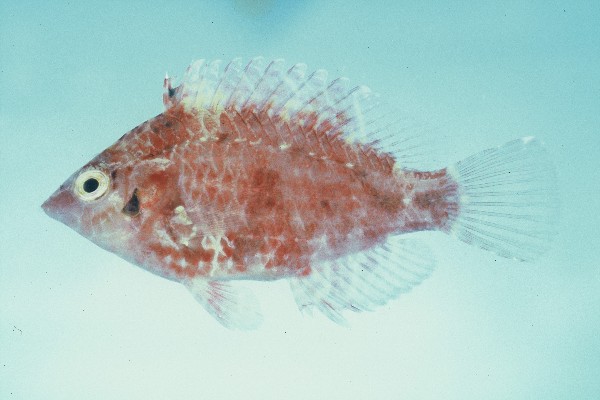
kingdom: Animalia
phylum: Chordata
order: Perciformes
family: Labridae
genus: Pteragogus
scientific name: Pteragogus cryptus
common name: Cryptic wrasse
